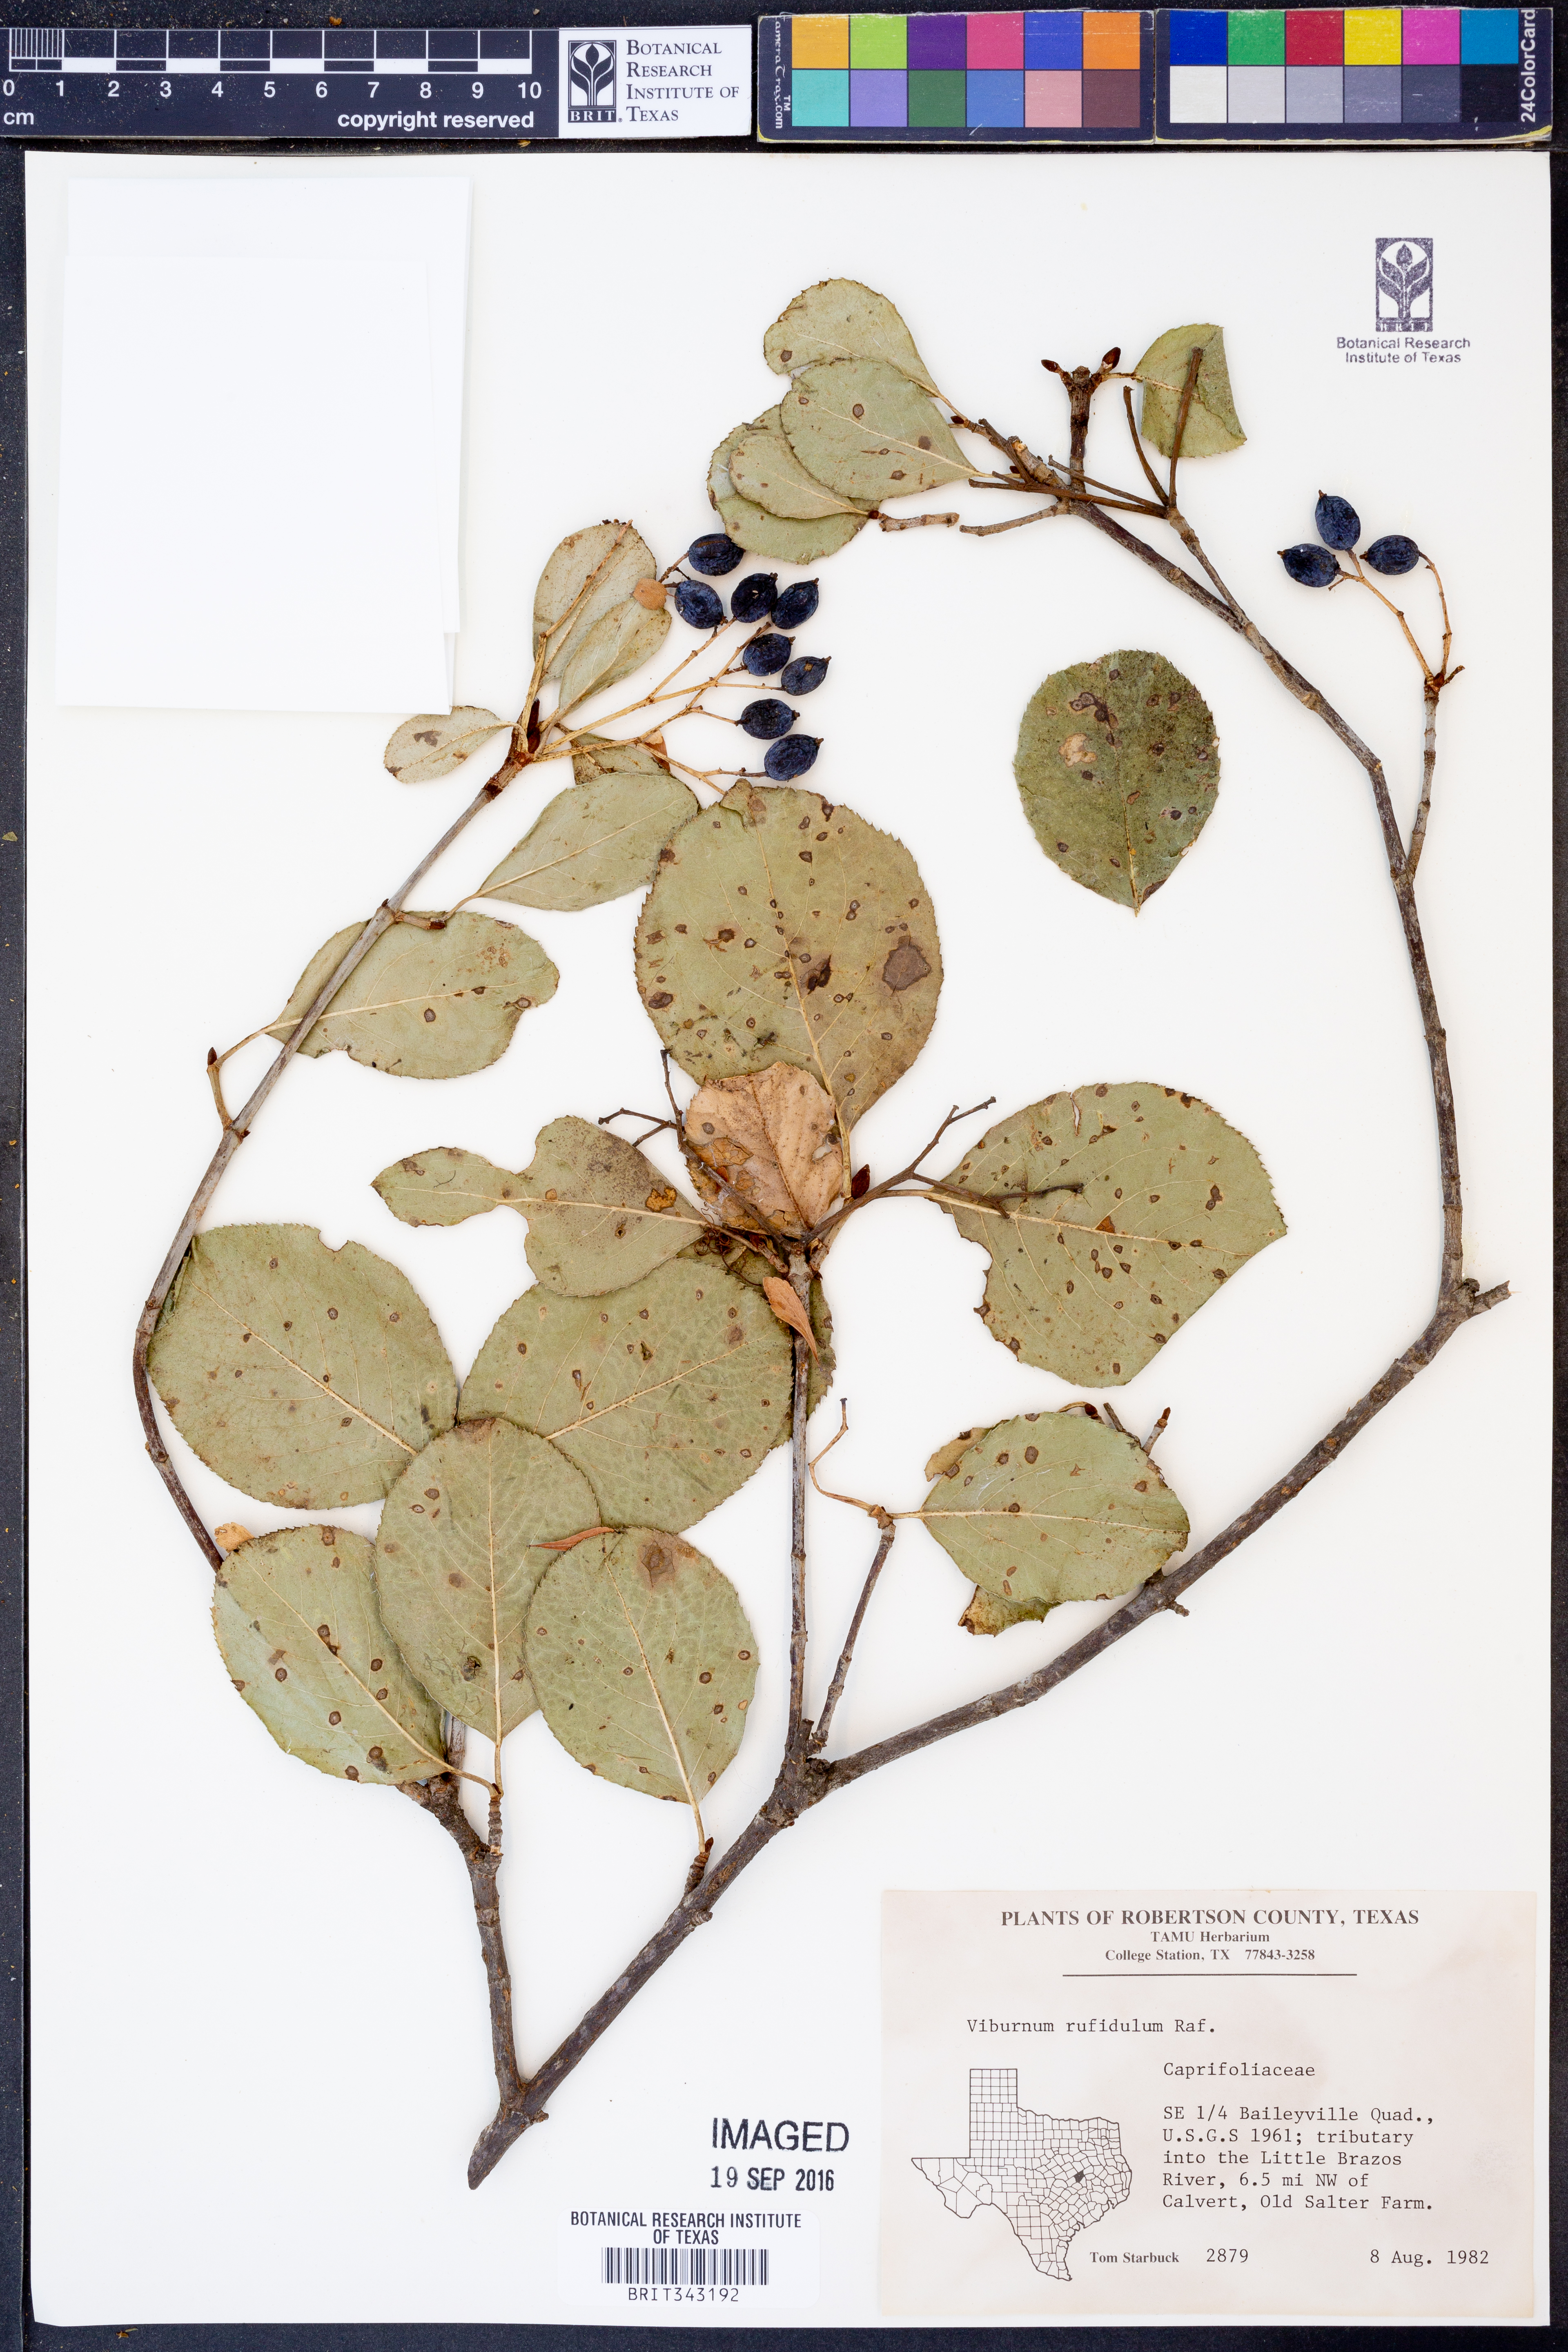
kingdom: Plantae
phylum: Tracheophyta
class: Magnoliopsida
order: Dipsacales
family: Viburnaceae
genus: Viburnum
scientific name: Viburnum rufidulum
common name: Blue haw
